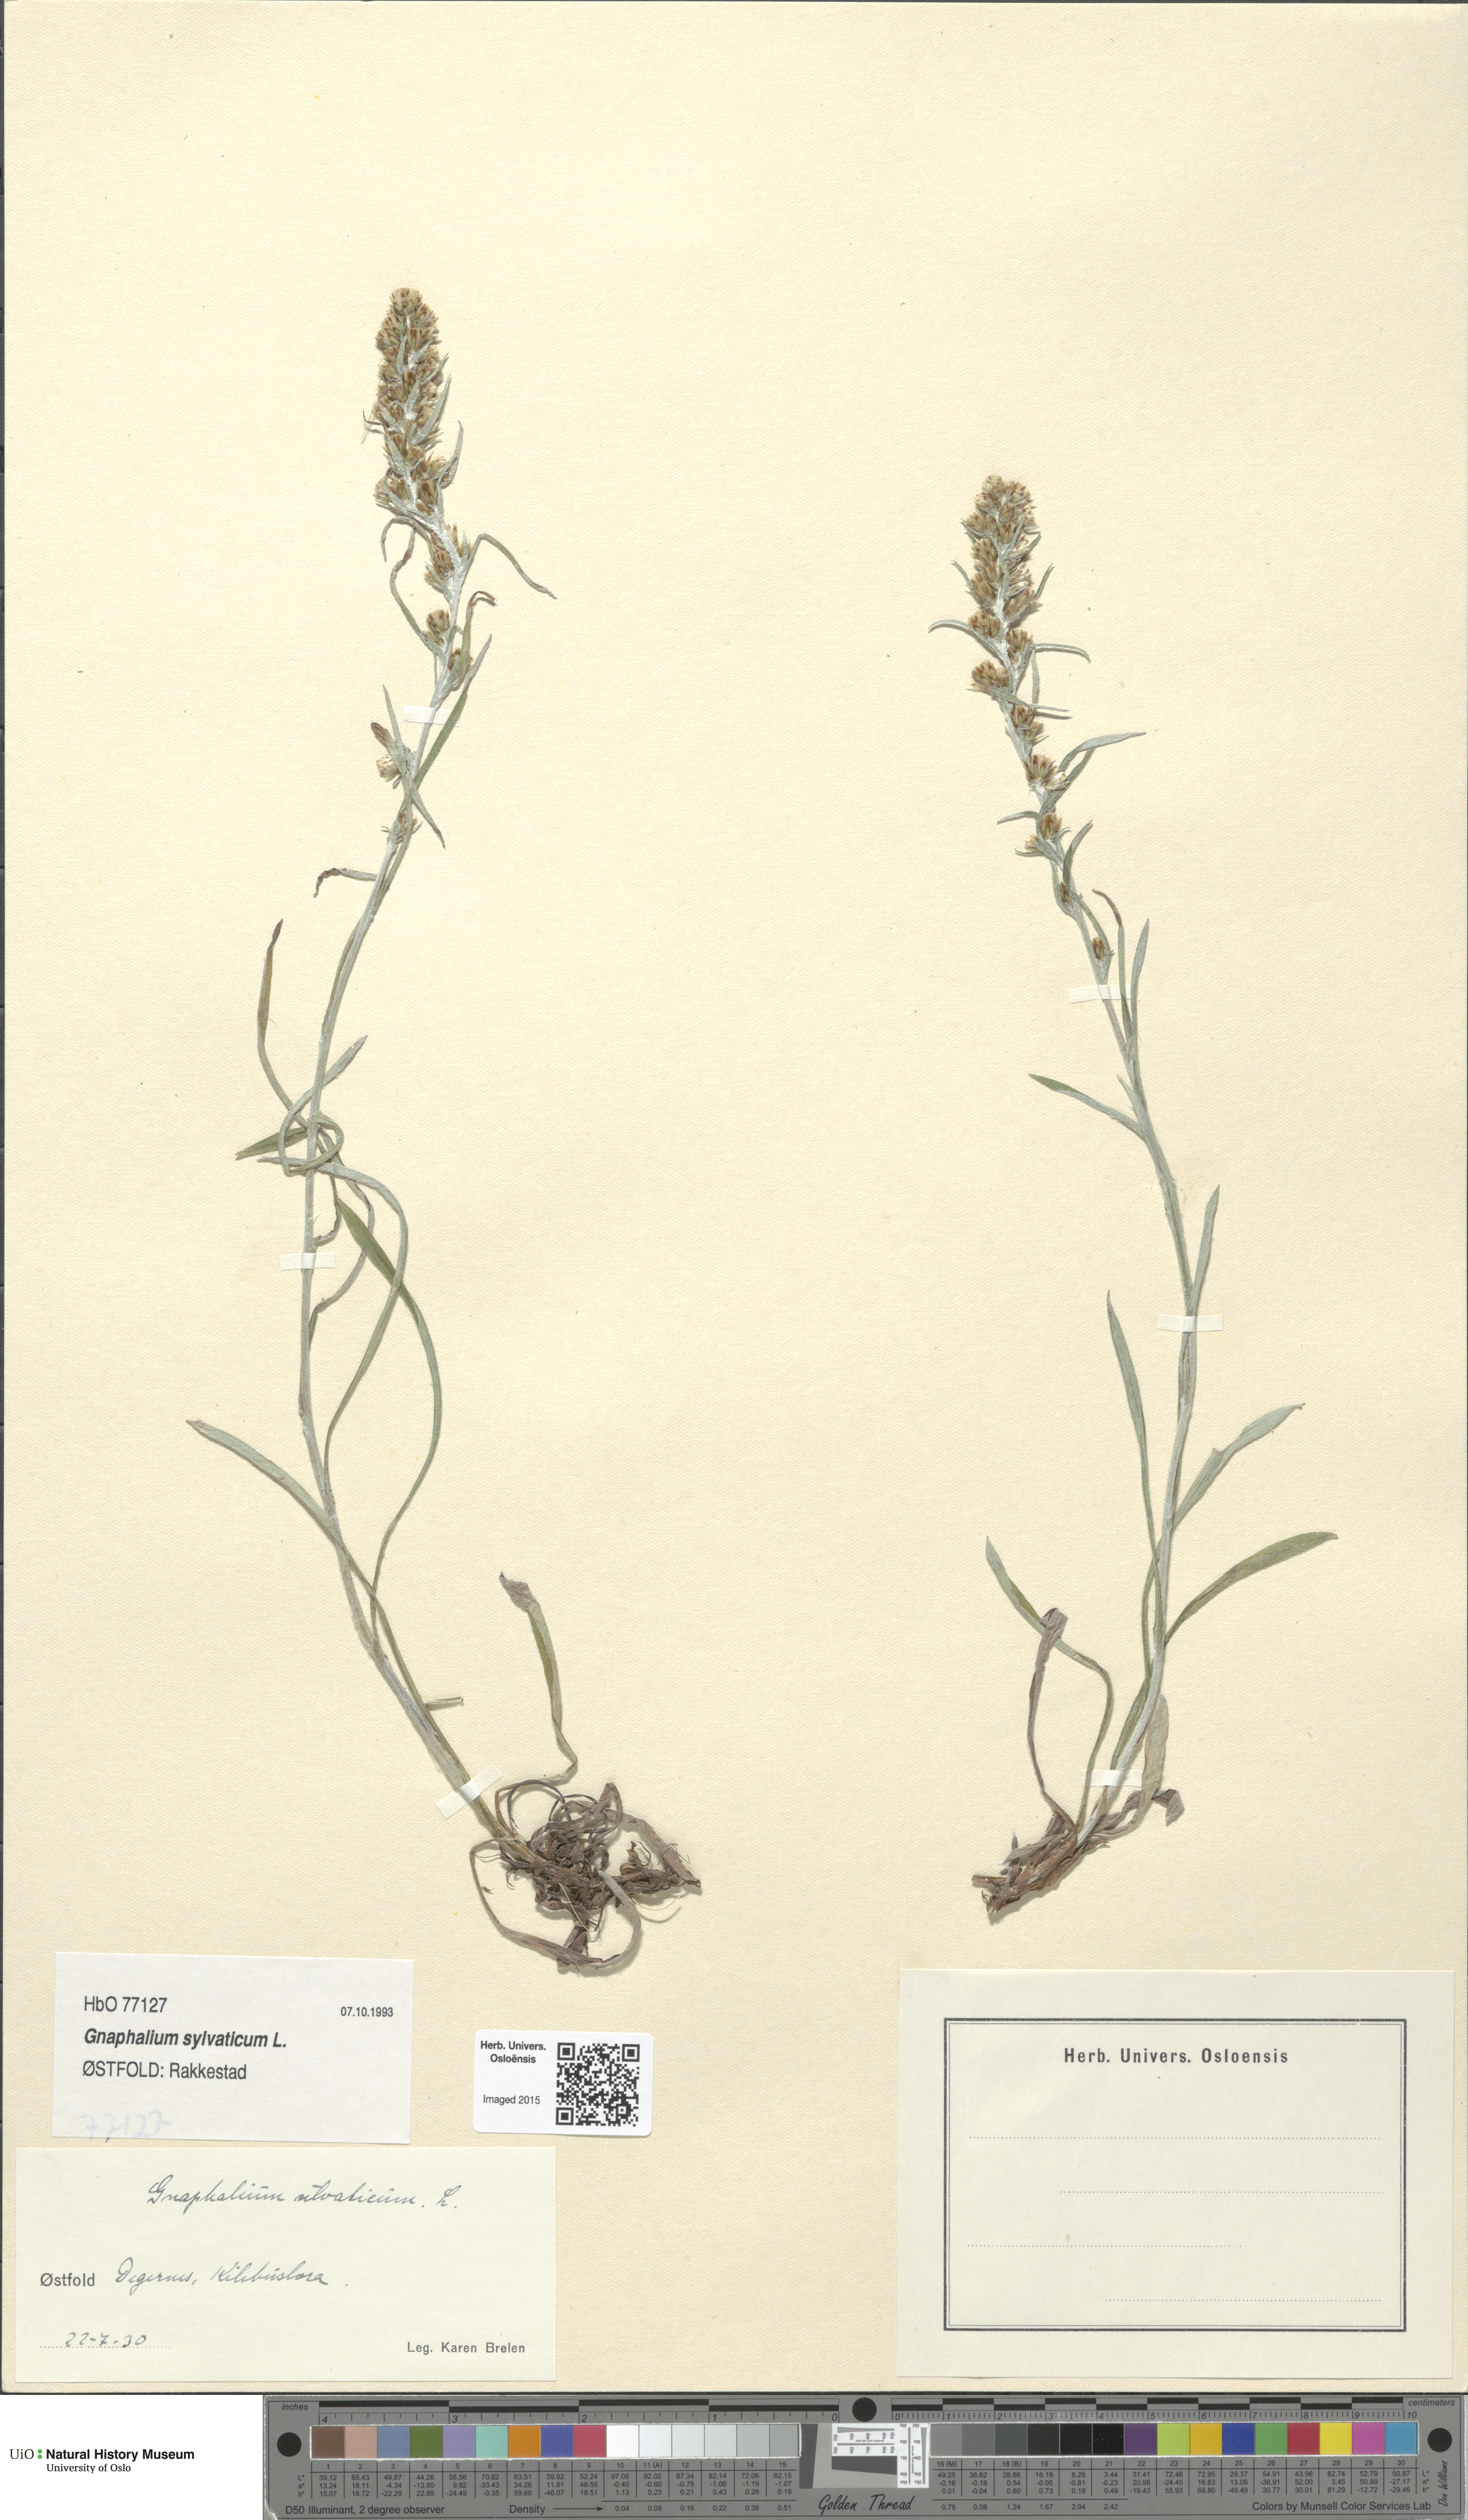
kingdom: Plantae
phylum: Tracheophyta
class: Magnoliopsida
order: Asterales
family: Asteraceae
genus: Omalotheca
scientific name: Omalotheca sylvatica
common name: Heath cudweed
